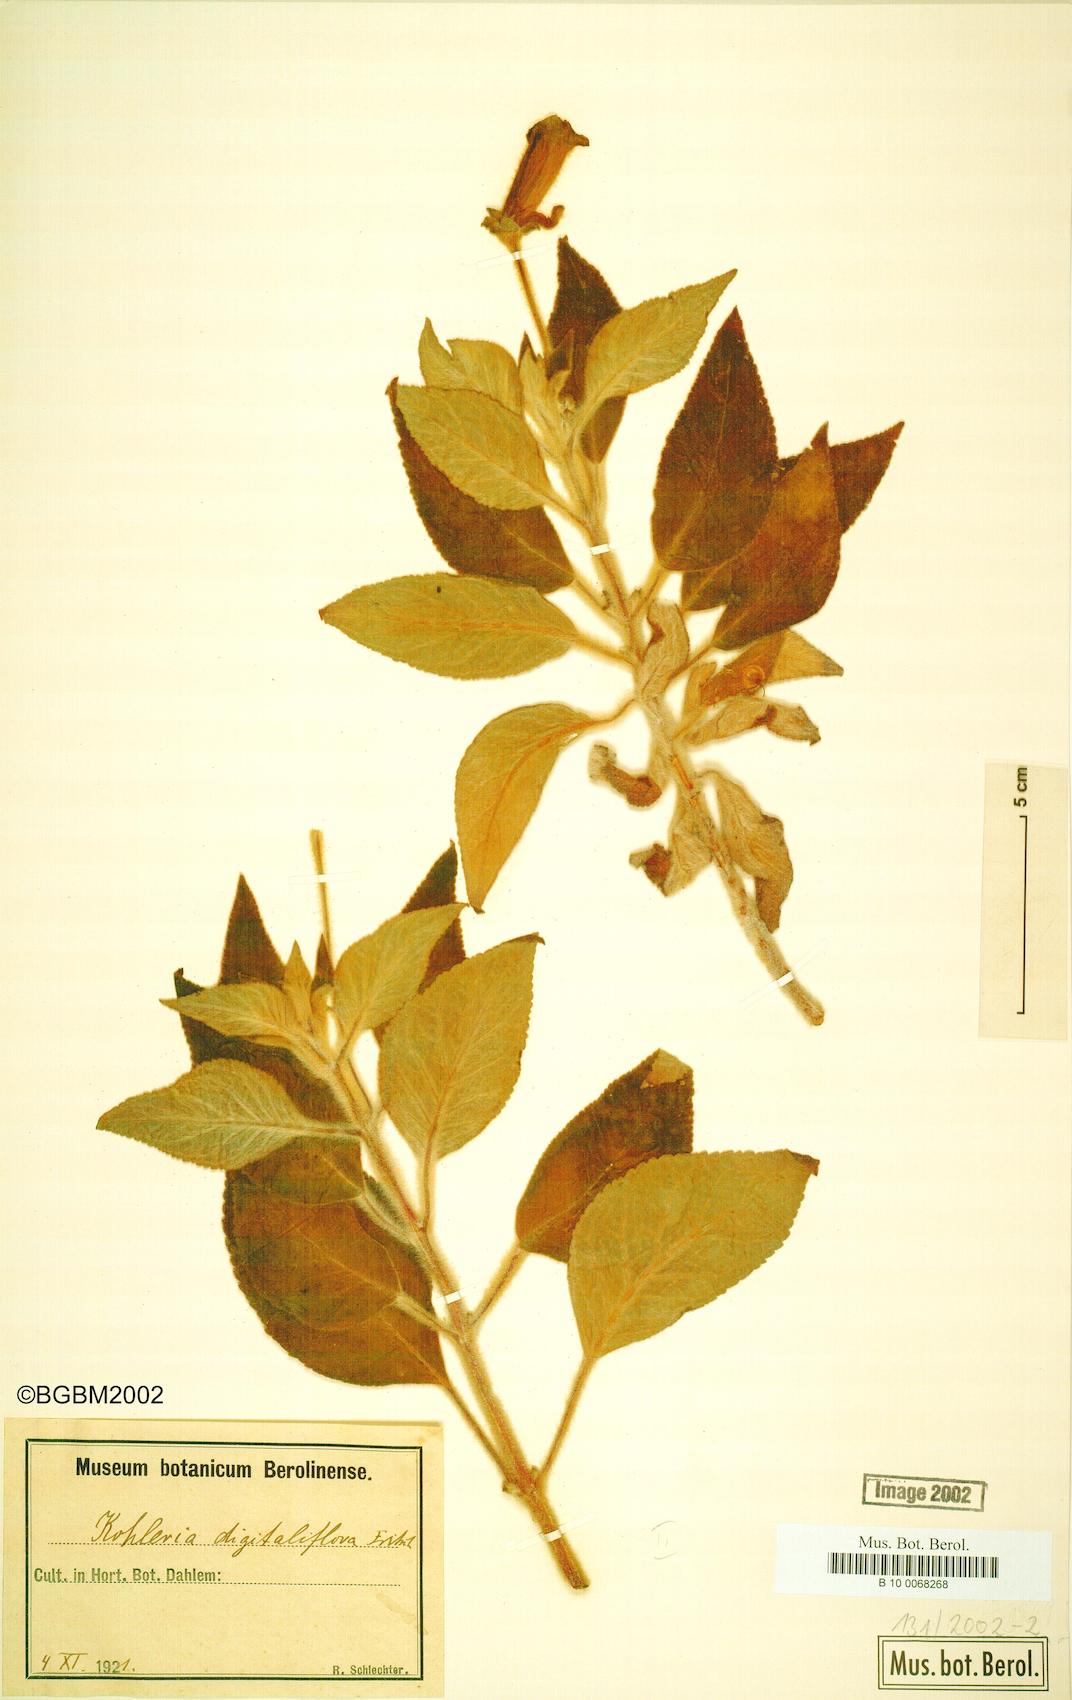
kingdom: Plantae
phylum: Tracheophyta
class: Magnoliopsida
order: Lamiales
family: Gesneriaceae
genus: Kohleria
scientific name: Kohleria warszewiczii
